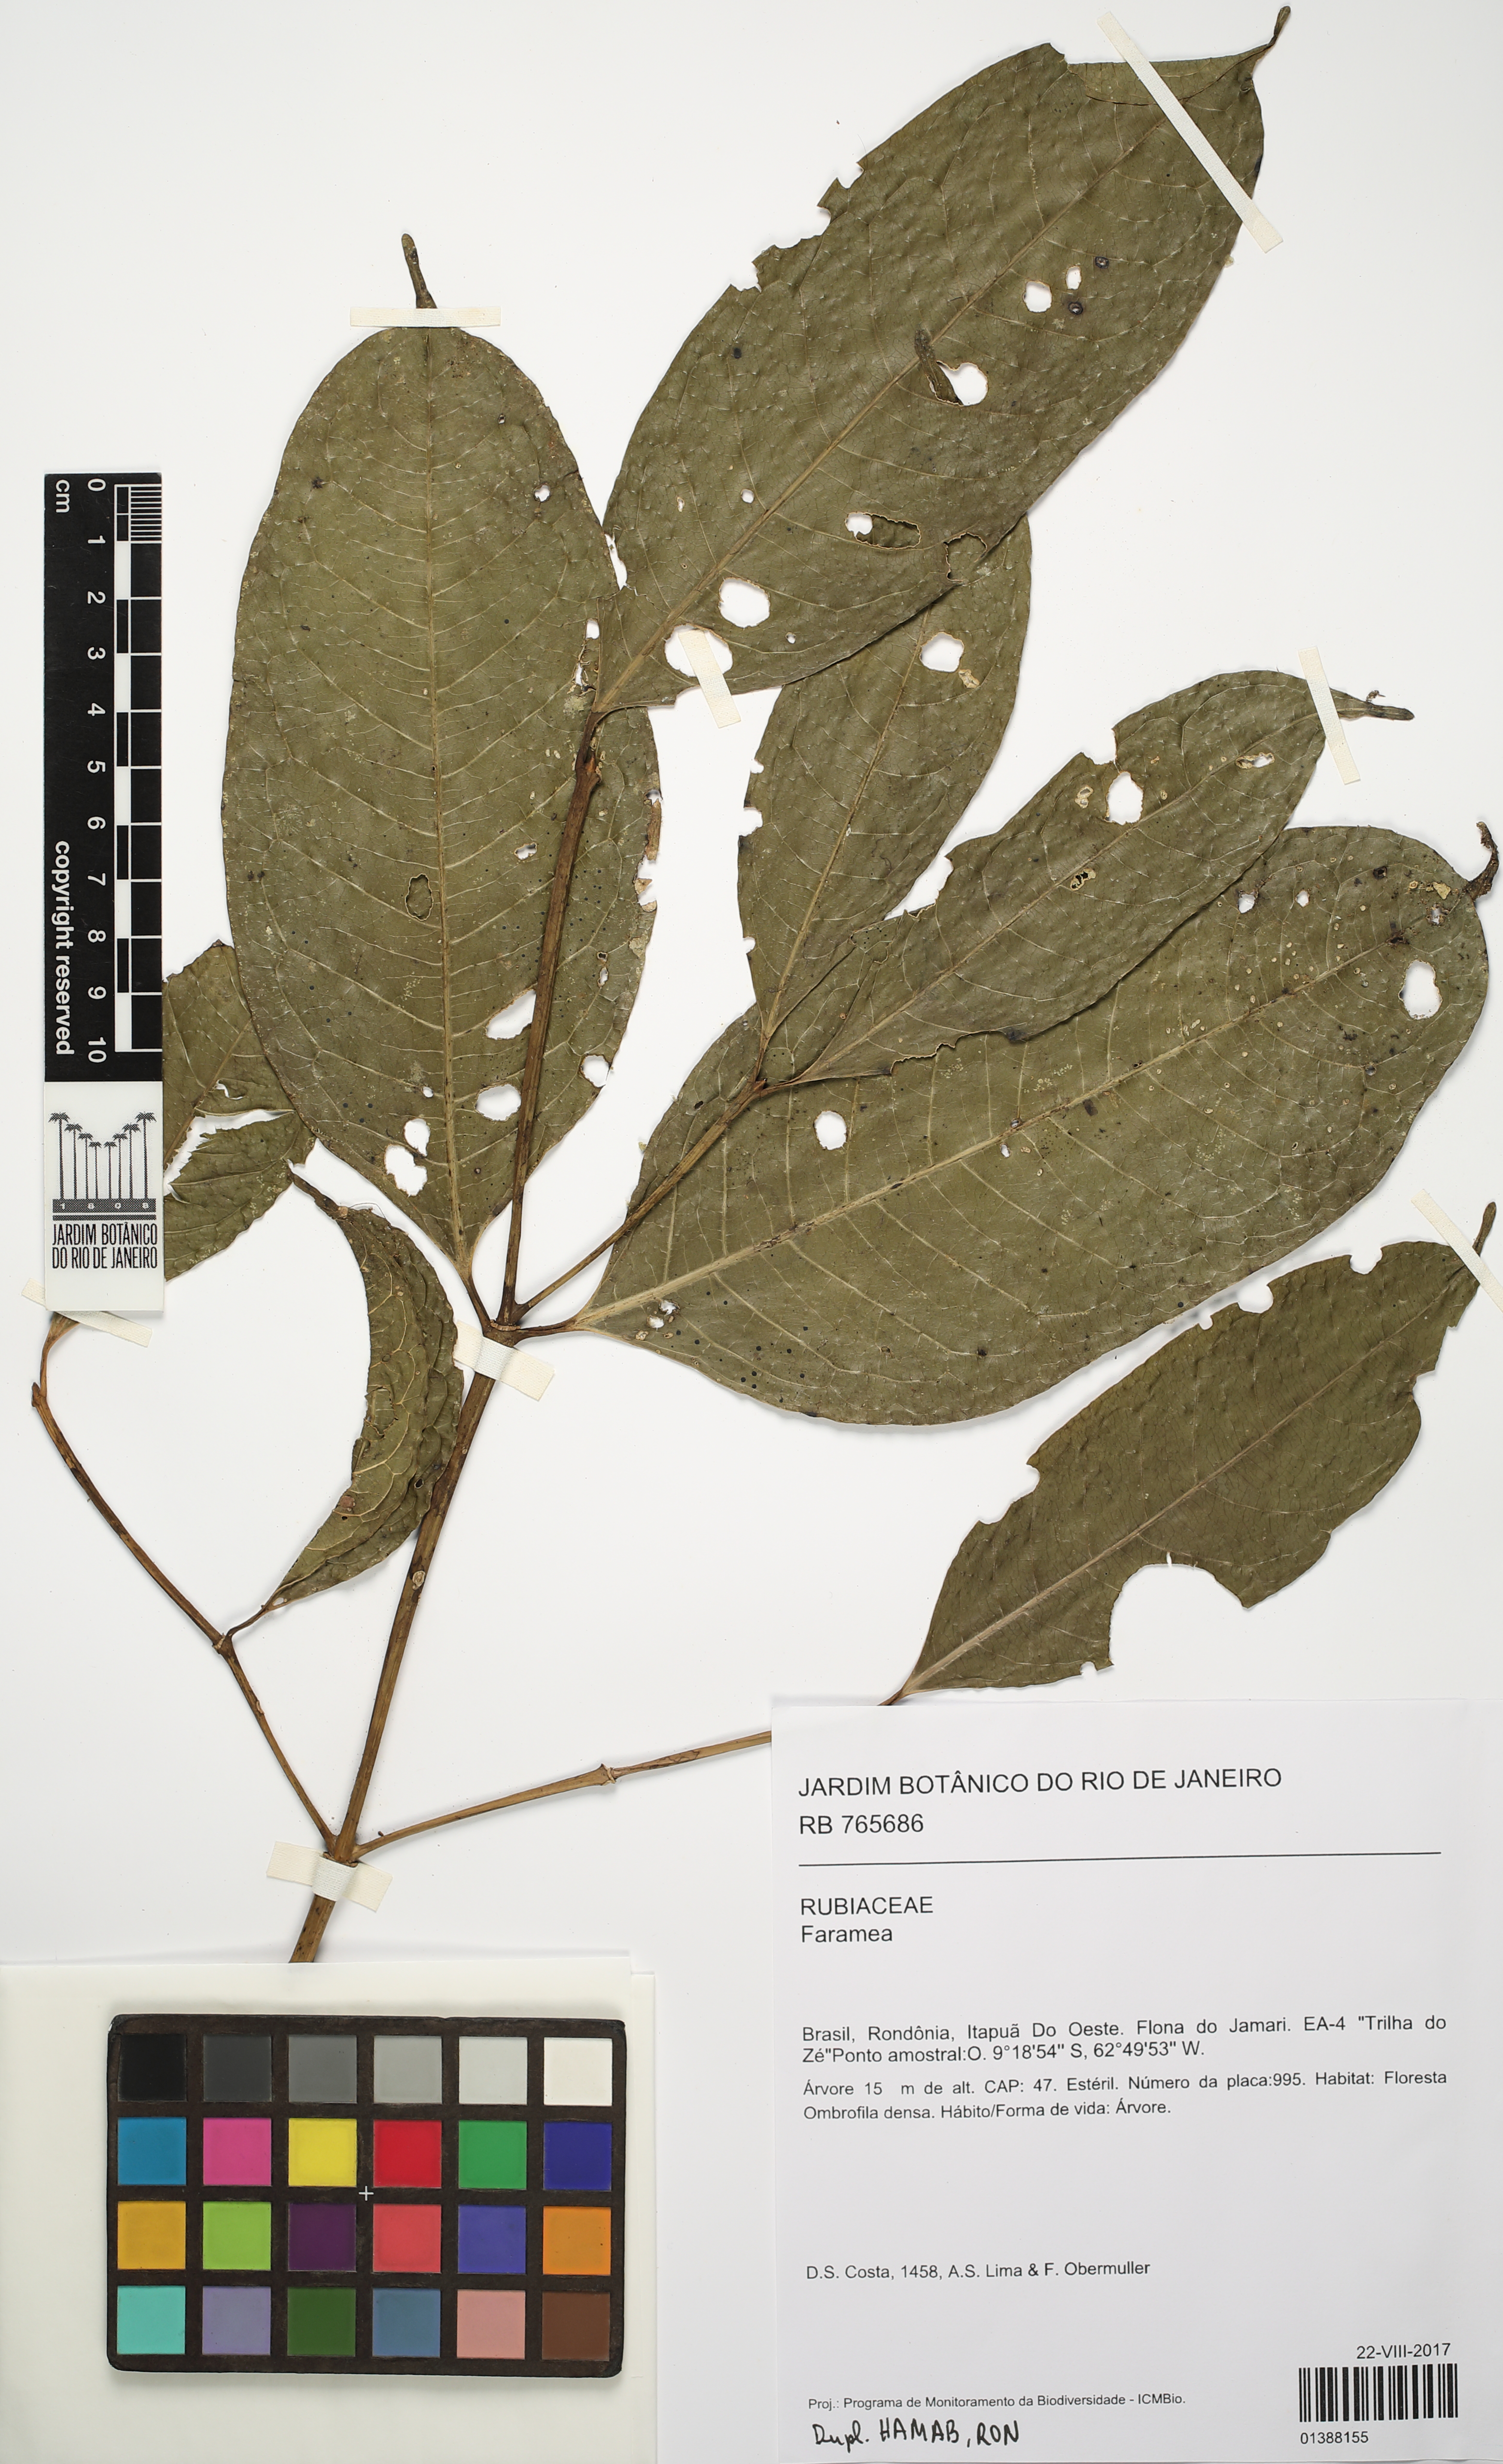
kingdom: Plantae
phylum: Tracheophyta
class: Magnoliopsida
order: Gentianales
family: Rubiaceae
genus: Faramea
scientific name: Faramea
